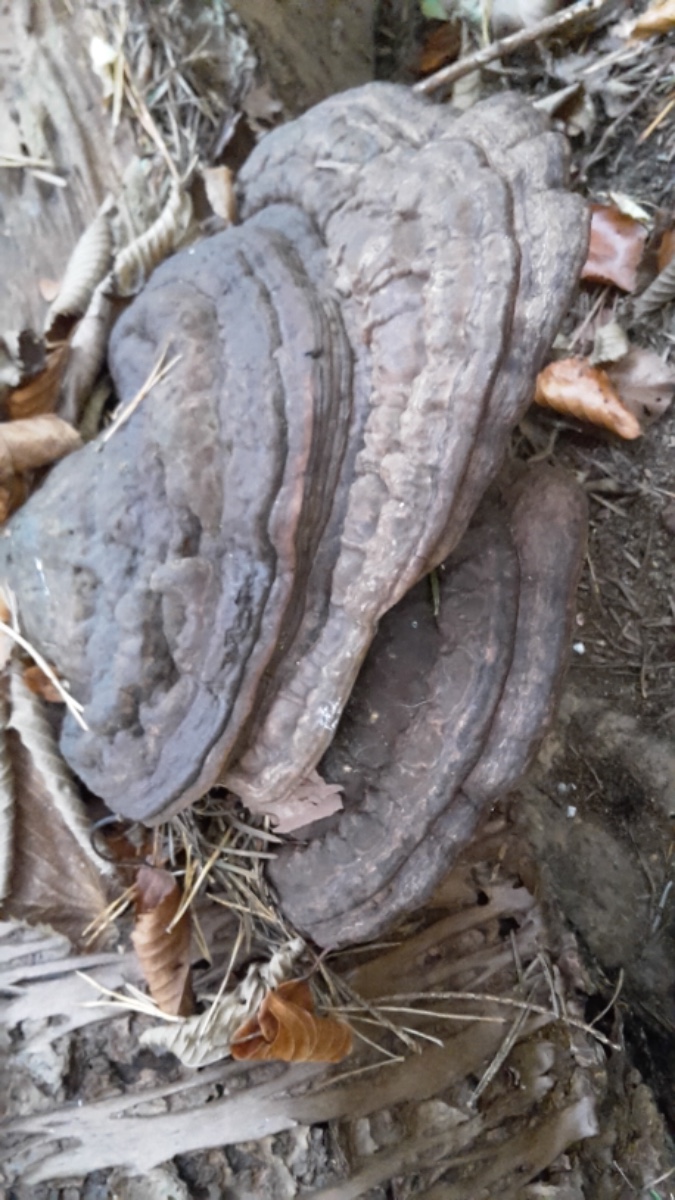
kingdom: Fungi
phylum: Basidiomycota
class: Agaricomycetes
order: Polyporales
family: Polyporaceae
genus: Ganoderma
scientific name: Ganoderma applanatum
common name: flad lakporesvamp
